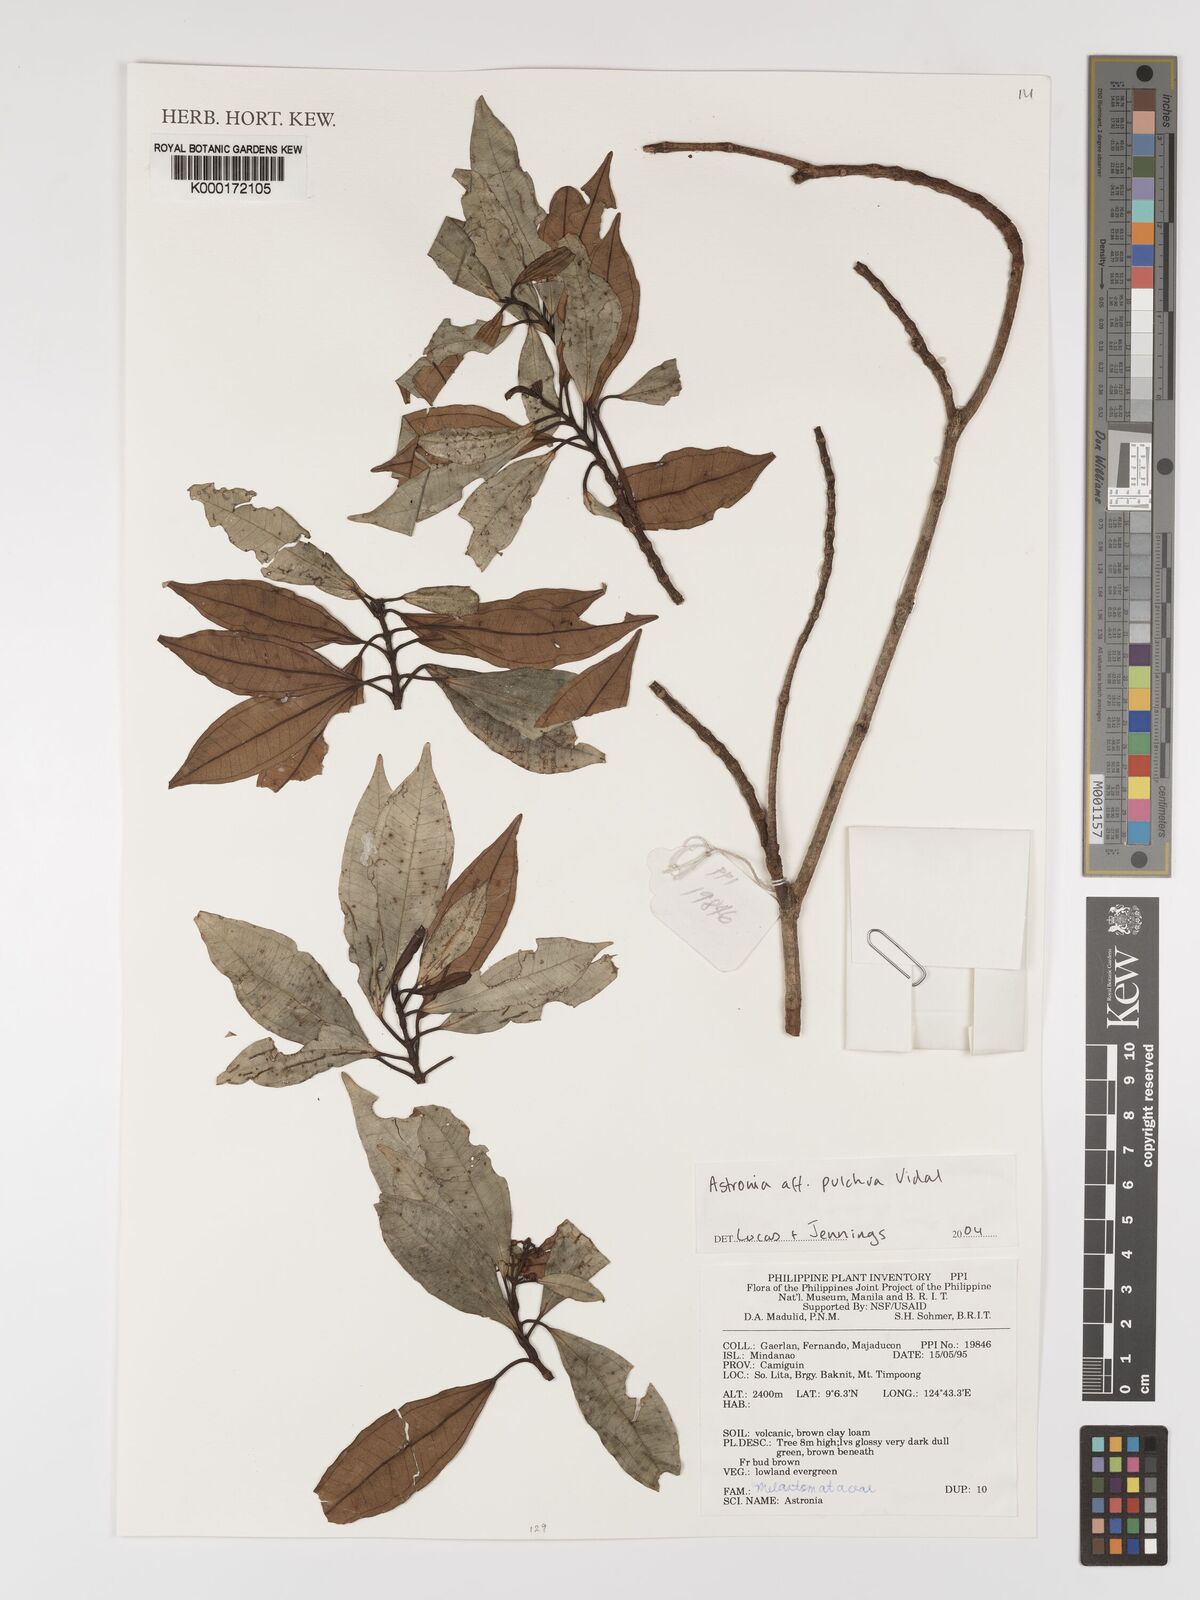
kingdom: Plantae
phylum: Tracheophyta
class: Magnoliopsida
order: Myrtales
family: Melastomataceae
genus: Astronia
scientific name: Astronia pulchra
